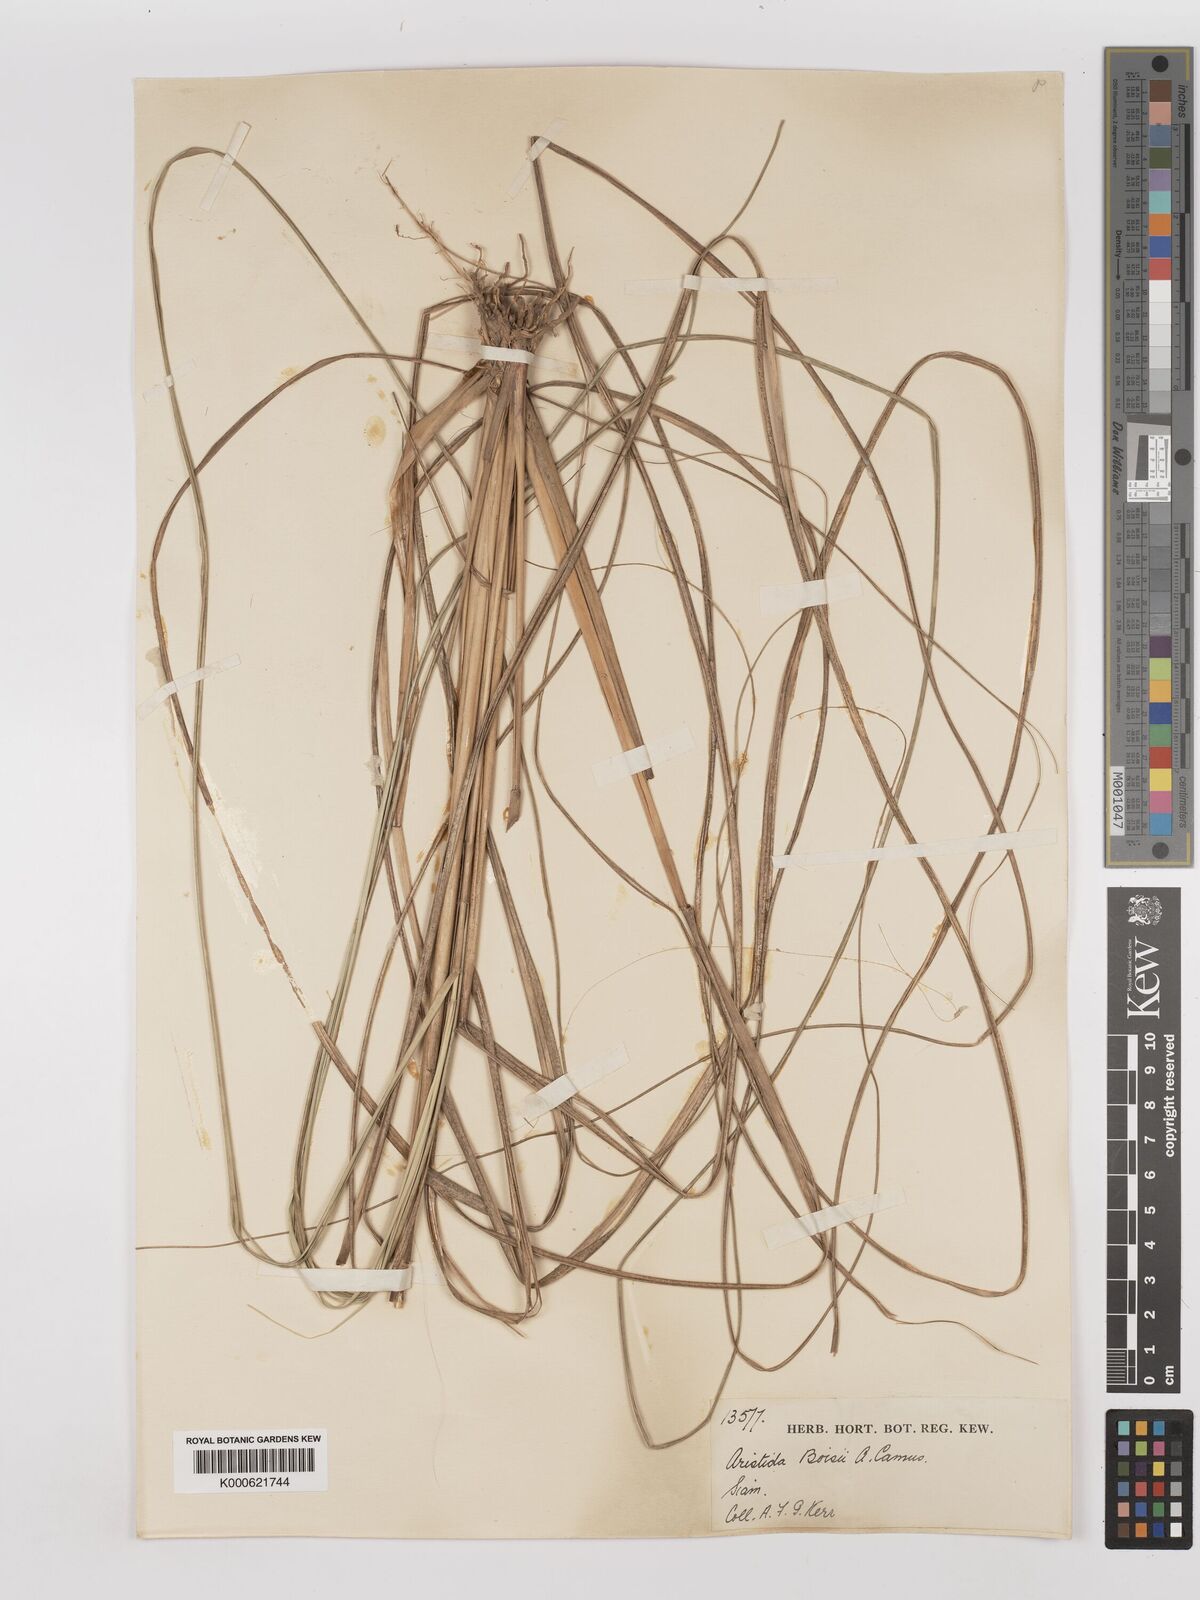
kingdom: Plantae
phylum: Tracheophyta
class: Liliopsida
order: Poales
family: Poaceae
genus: Aristida
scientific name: Aristida culionensis
